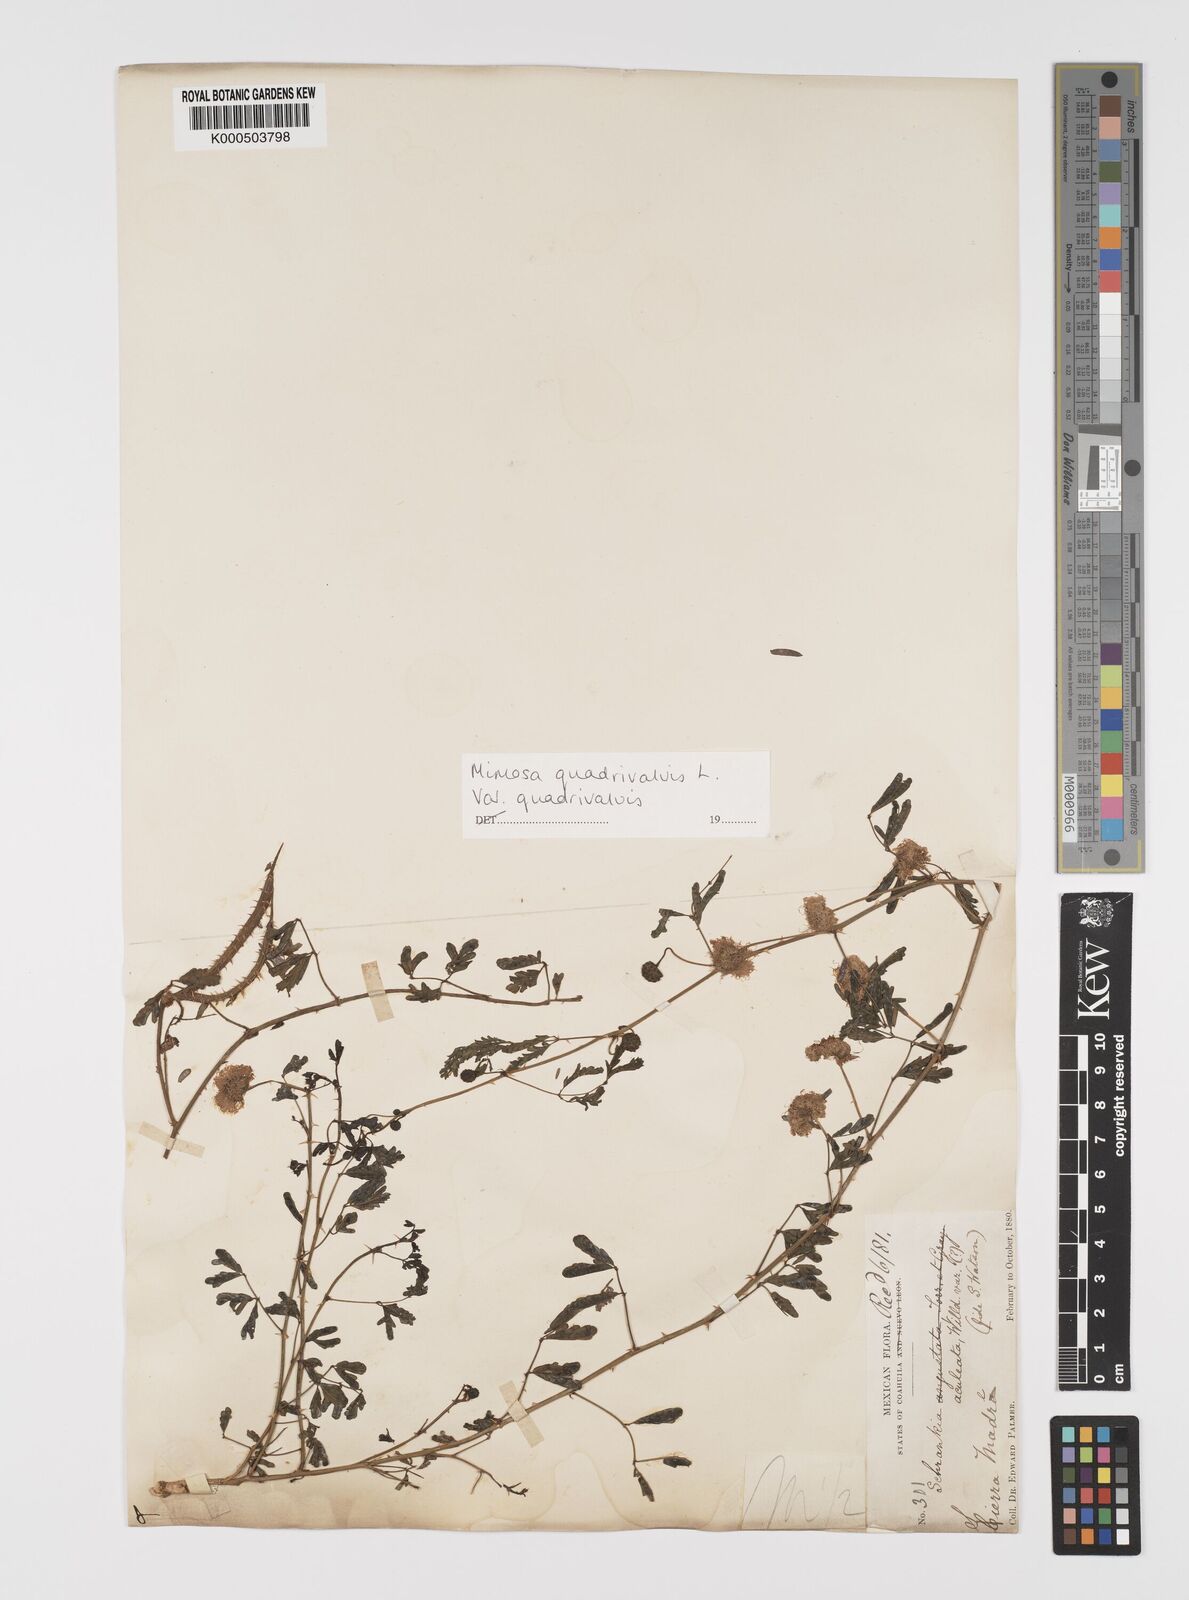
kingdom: Plantae
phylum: Tracheophyta
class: Magnoliopsida
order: Fabales
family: Fabaceae
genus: Mimosa
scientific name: Mimosa quadrivalvis
